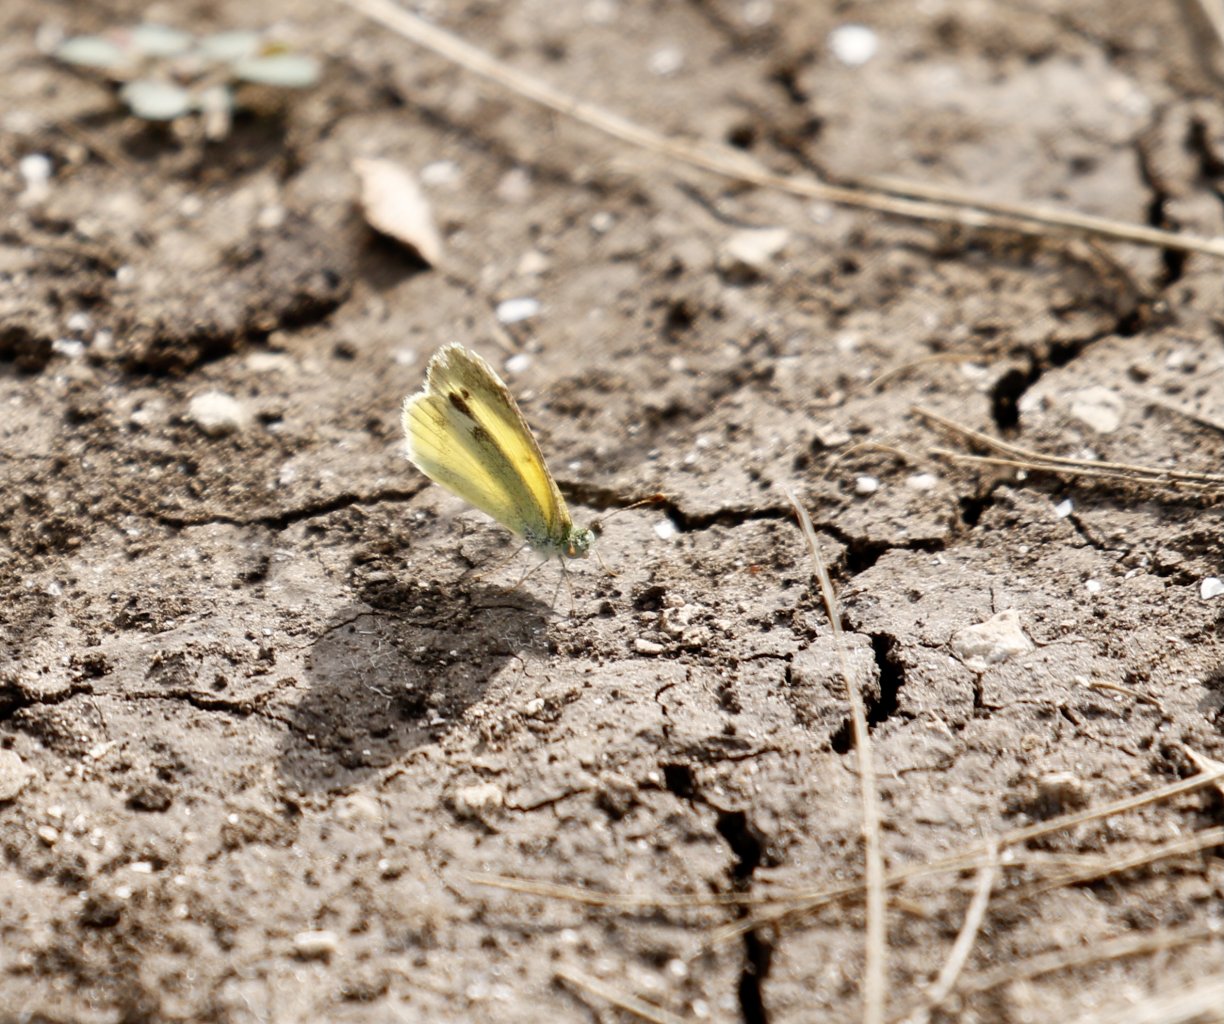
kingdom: Animalia
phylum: Arthropoda
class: Insecta
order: Lepidoptera
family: Pieridae
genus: Nathalis
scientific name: Nathalis iole
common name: Dainty Sulphur
